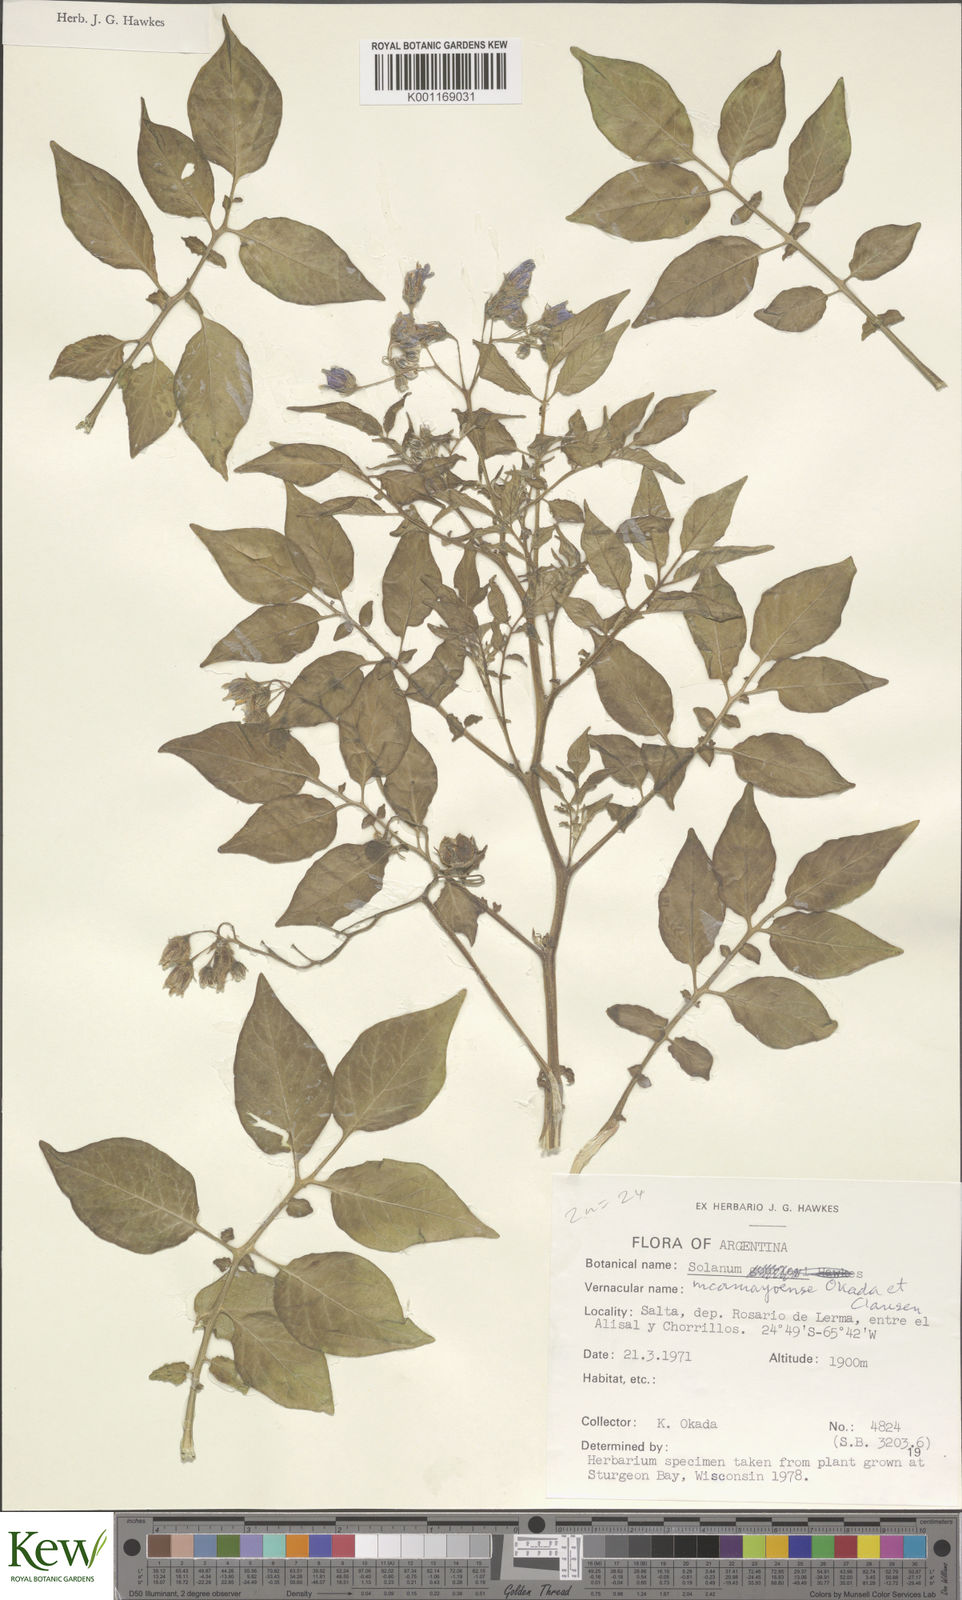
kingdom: Plantae
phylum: Tracheophyta
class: Magnoliopsida
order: Solanales
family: Solanaceae
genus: Solanum
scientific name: Solanum brevicaule
